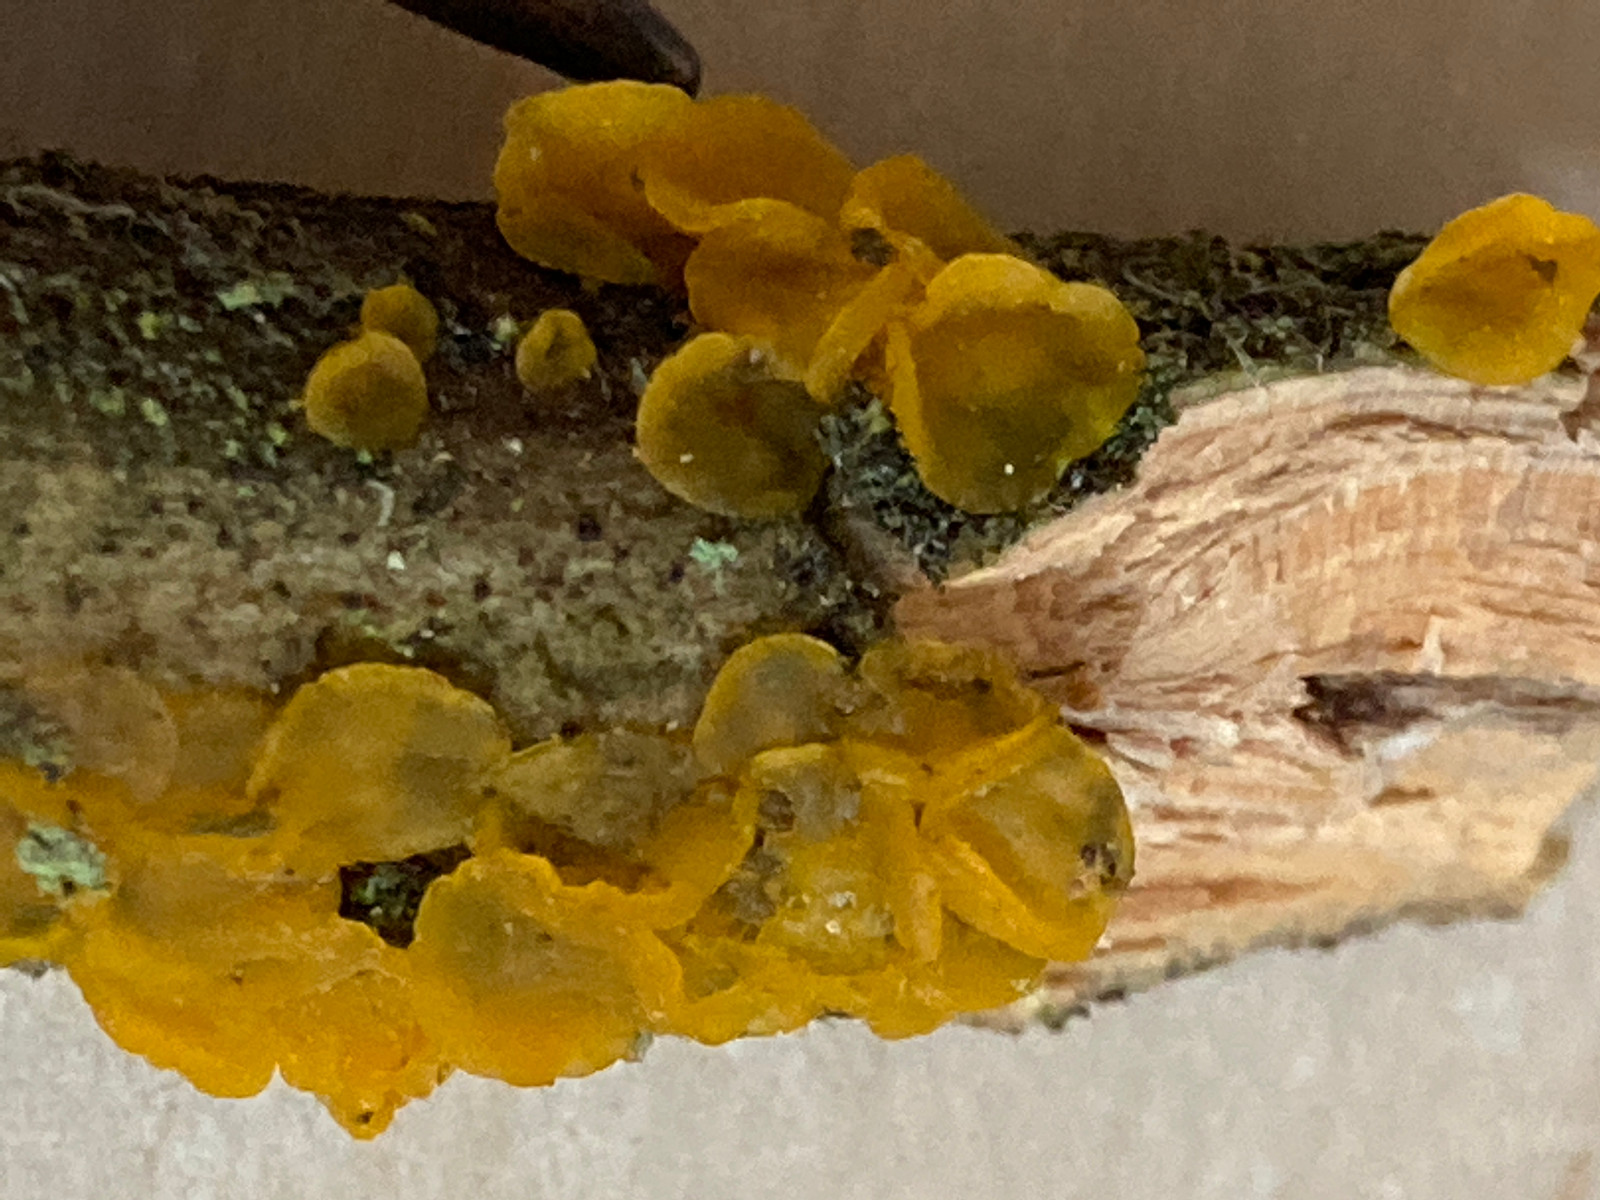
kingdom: Fungi
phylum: Basidiomycota
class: Dacrymycetes
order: Dacrymycetales
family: Dacrymycetaceae
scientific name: Dacrymycetaceae
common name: tåresvampfamilien
